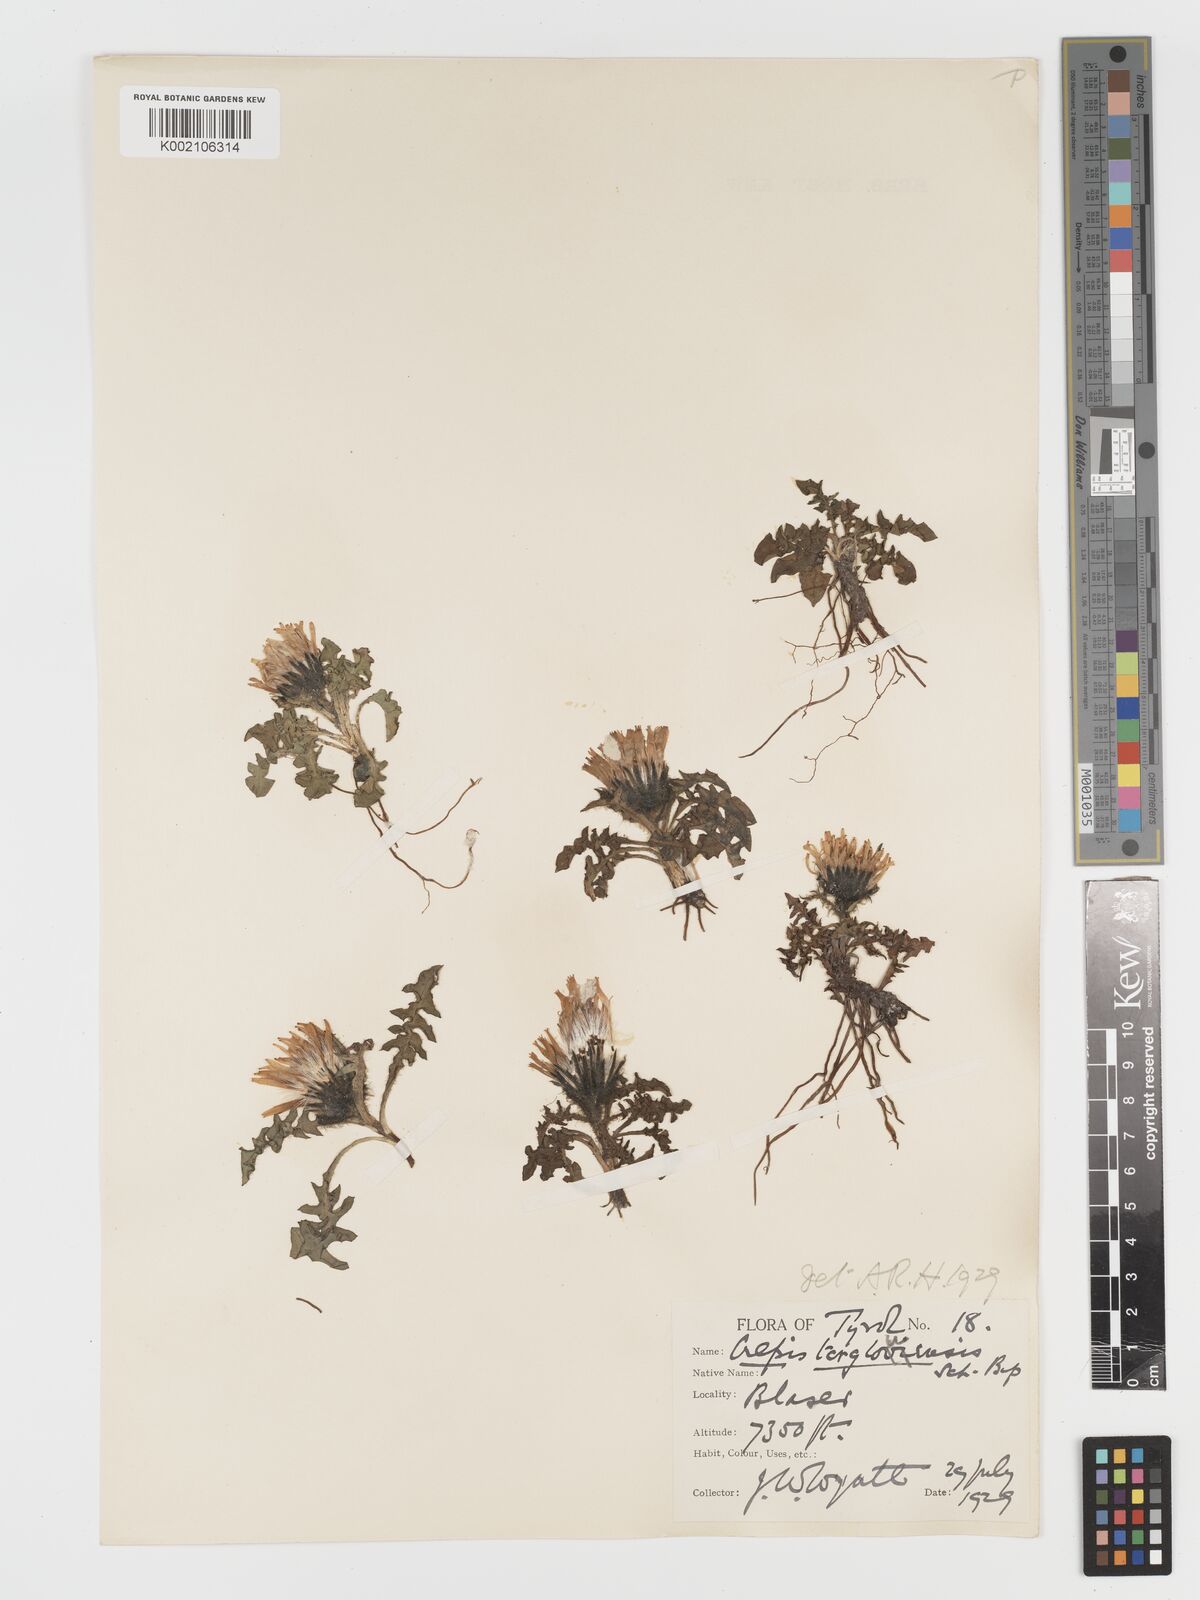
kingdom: Plantae
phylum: Tracheophyta
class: Magnoliopsida
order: Asterales
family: Asteraceae
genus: Crepis
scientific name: Crepis terglouensis
